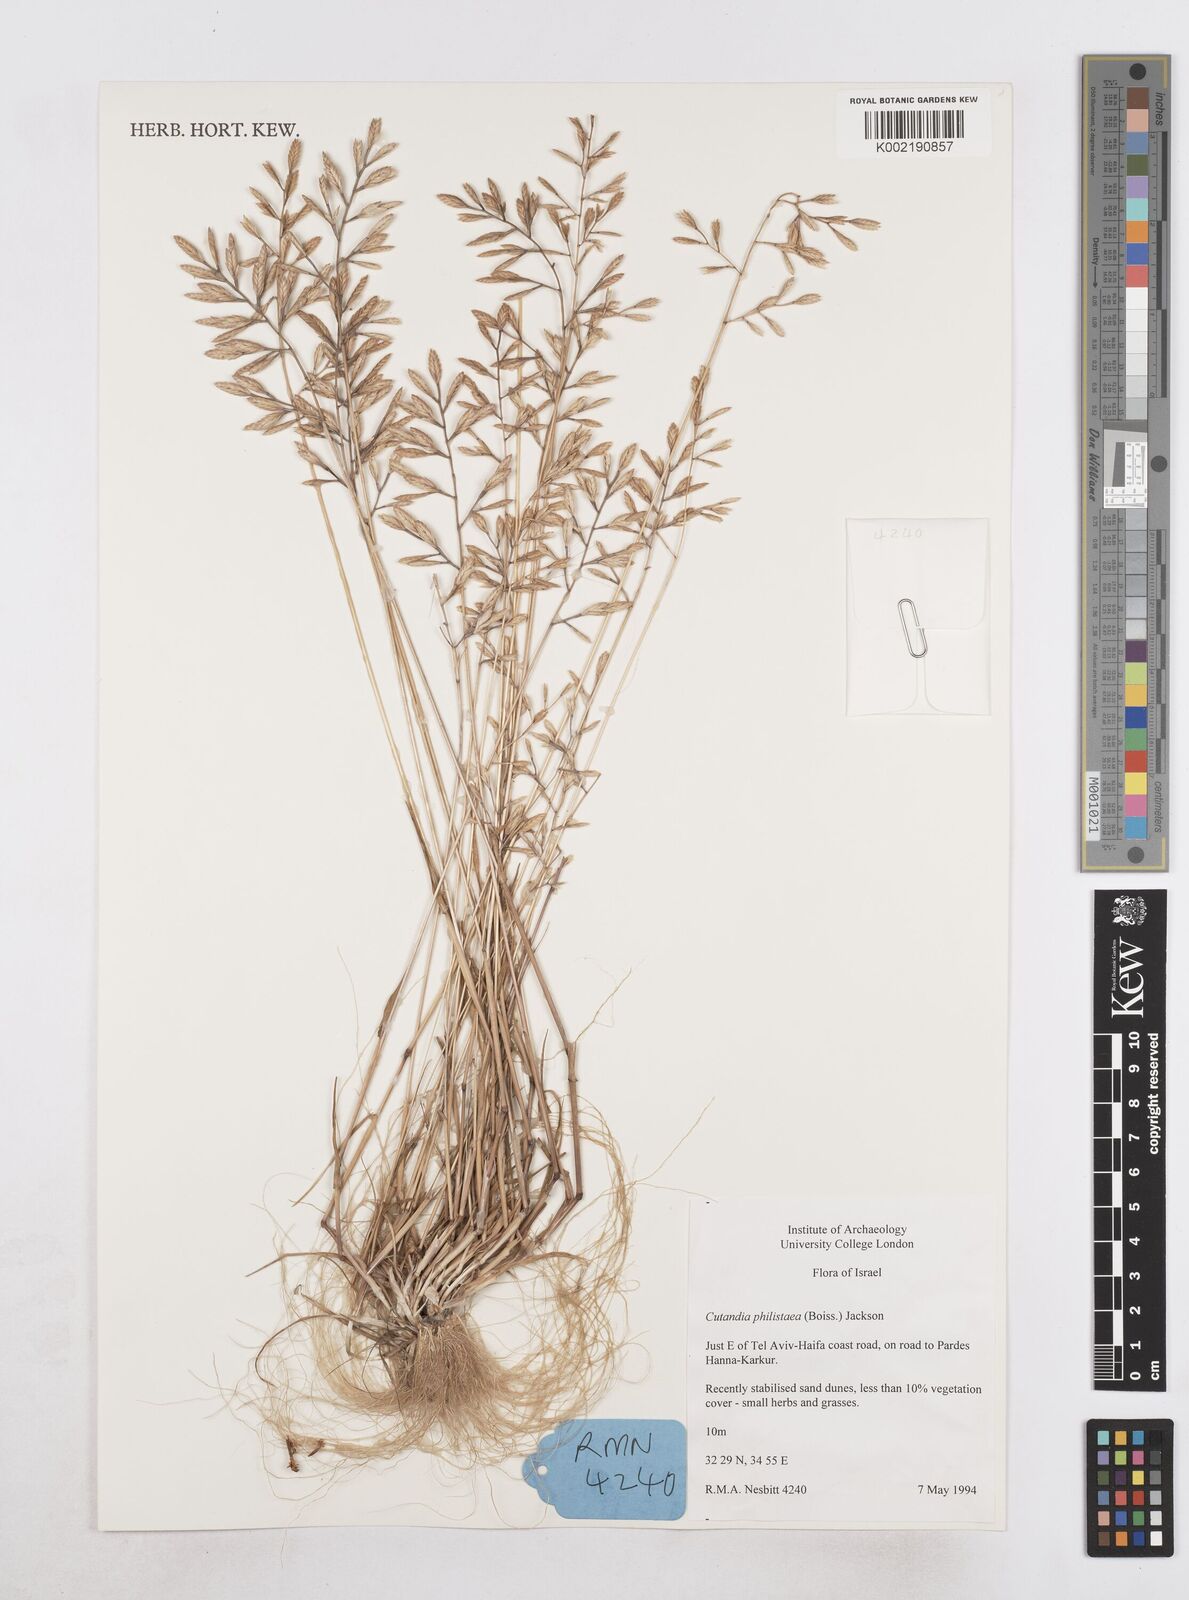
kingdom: Plantae
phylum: Tracheophyta
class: Liliopsida
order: Poales
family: Poaceae
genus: Desmazeria
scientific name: Desmazeria philistaea
